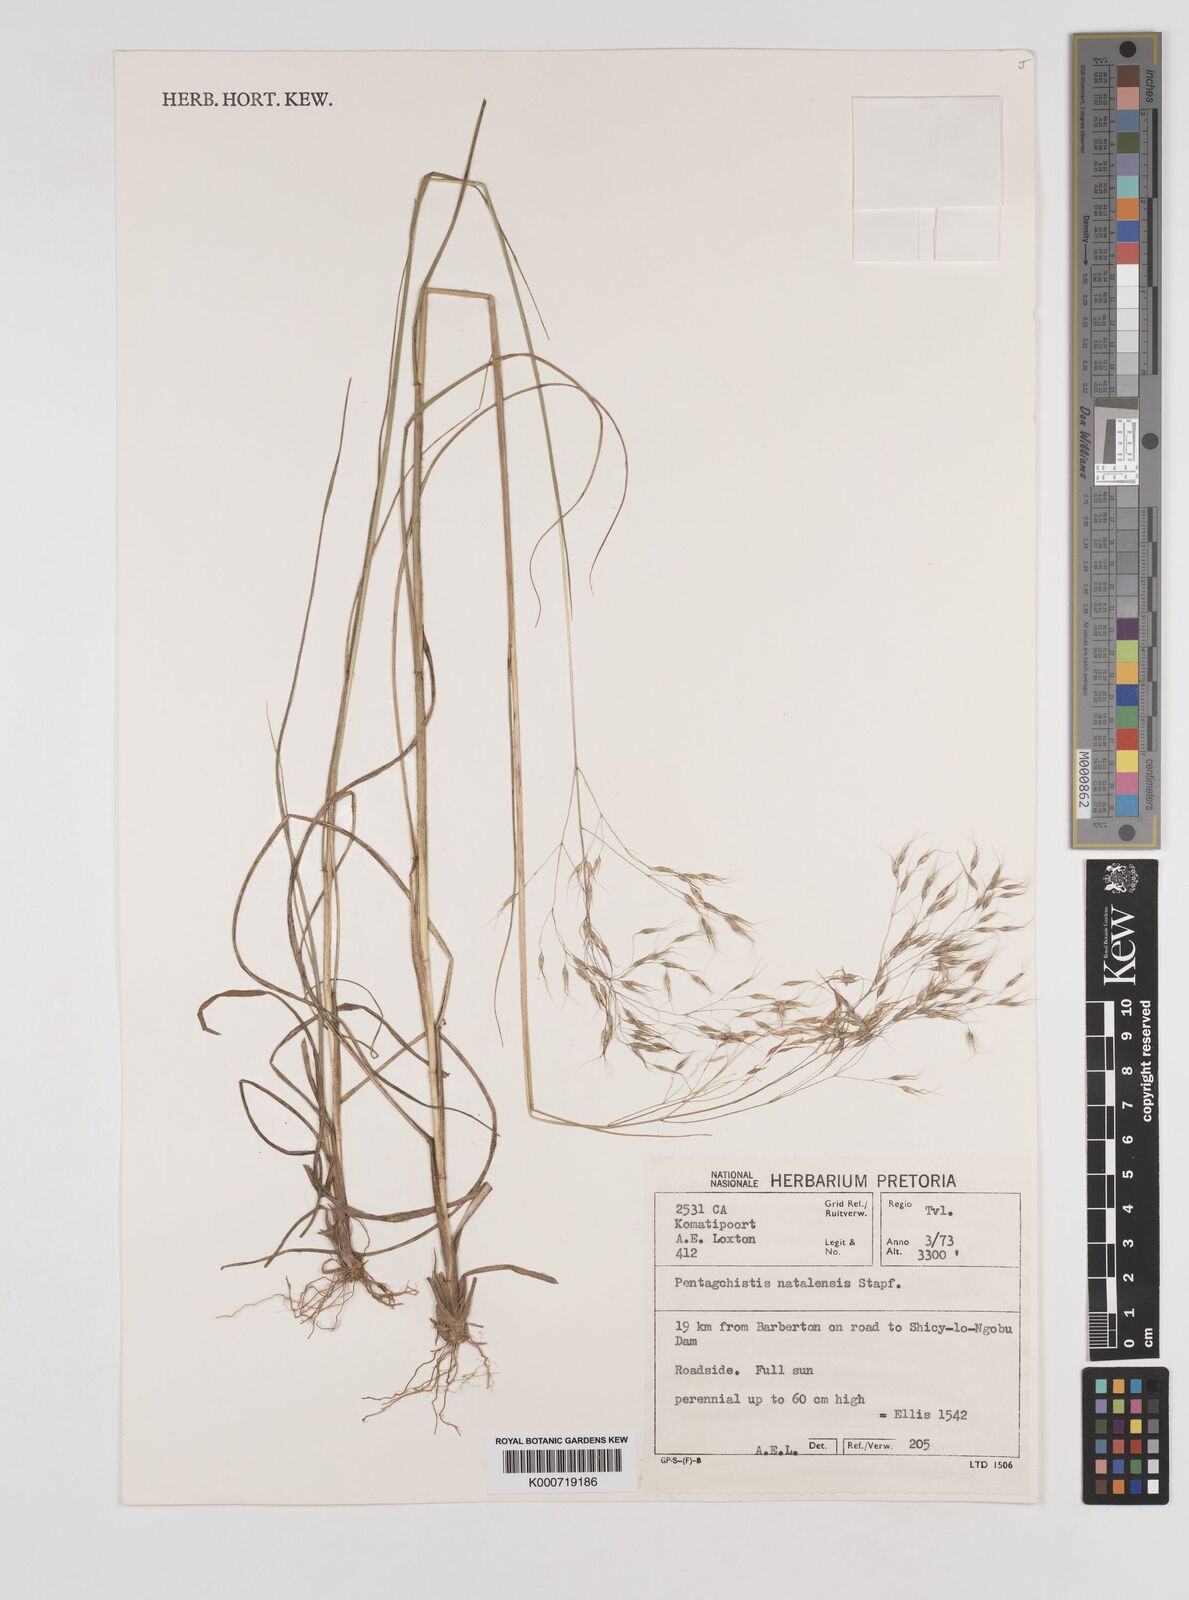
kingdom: Plantae
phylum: Tracheophyta
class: Liliopsida
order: Poales
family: Poaceae
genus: Pentameris
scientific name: Pentameris natalensis
